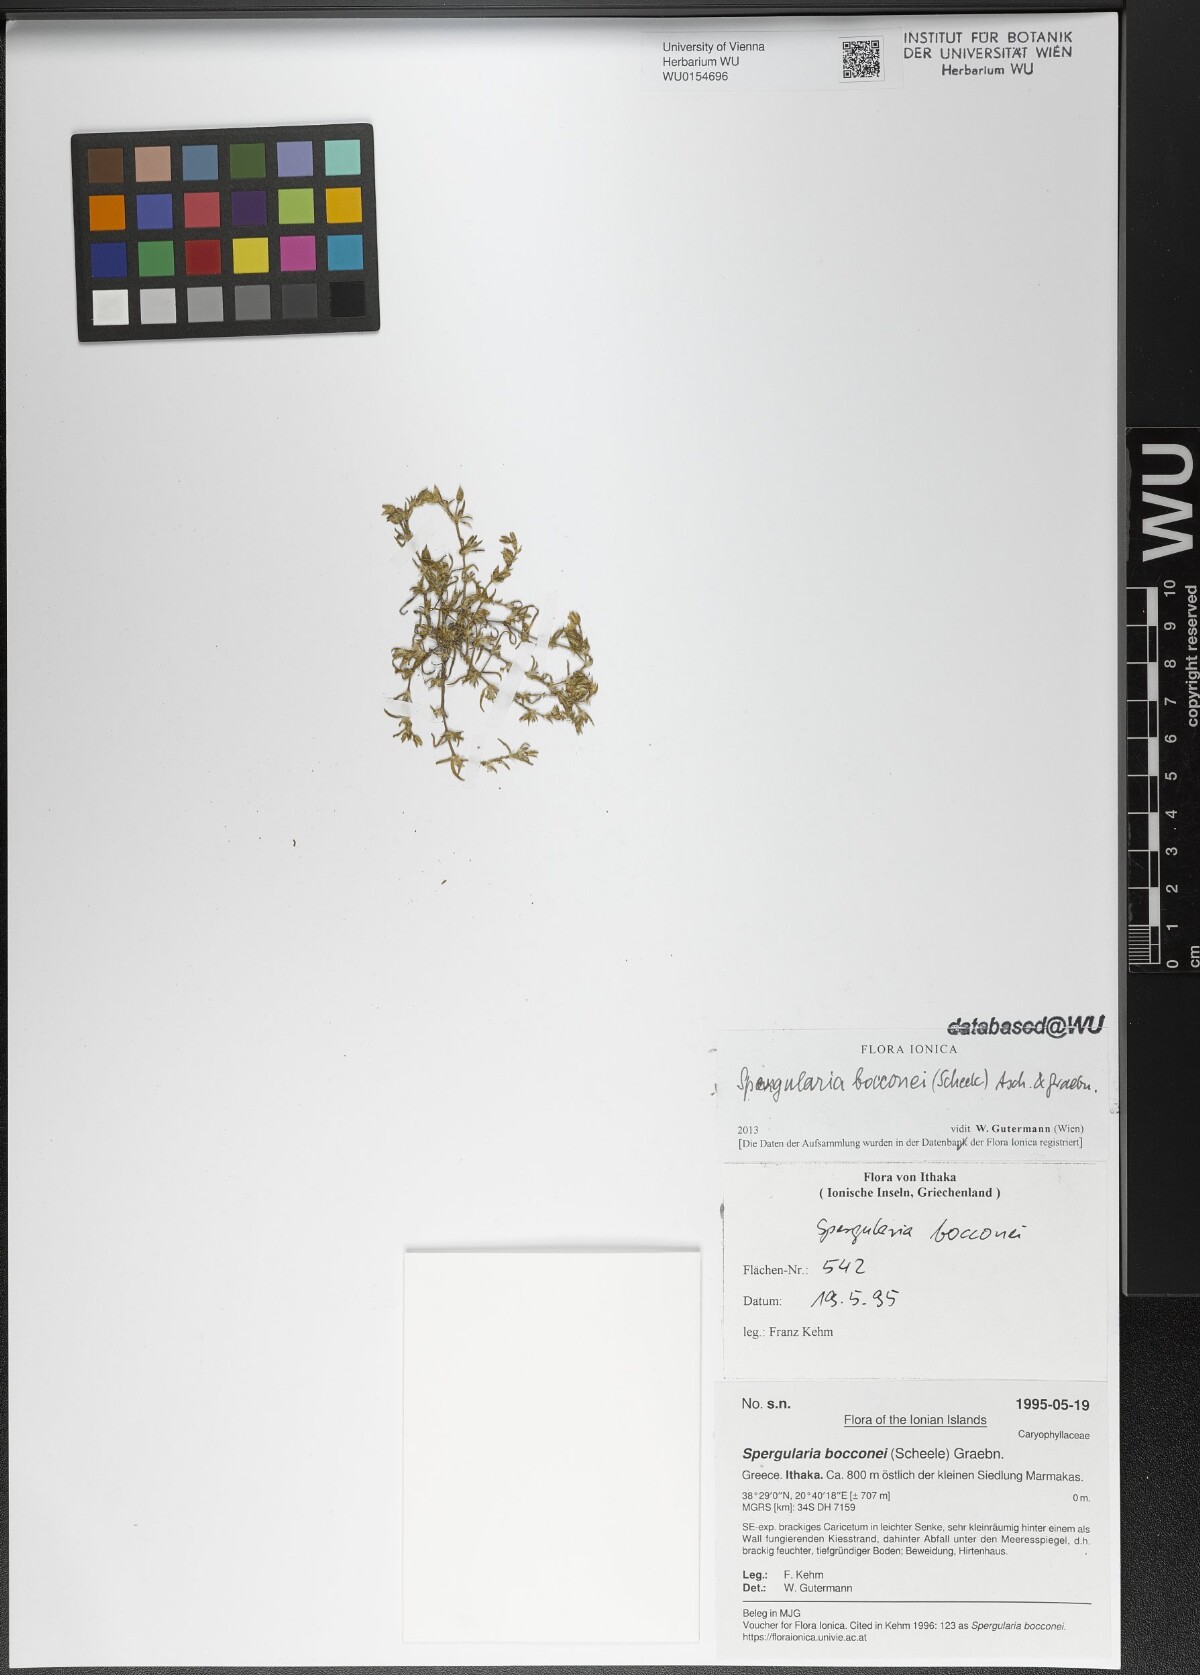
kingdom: Plantae
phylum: Tracheophyta
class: Magnoliopsida
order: Caryophyllales
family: Caryophyllaceae
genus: Spergularia
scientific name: Spergularia bocconei
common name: Greek sea-spurrey
